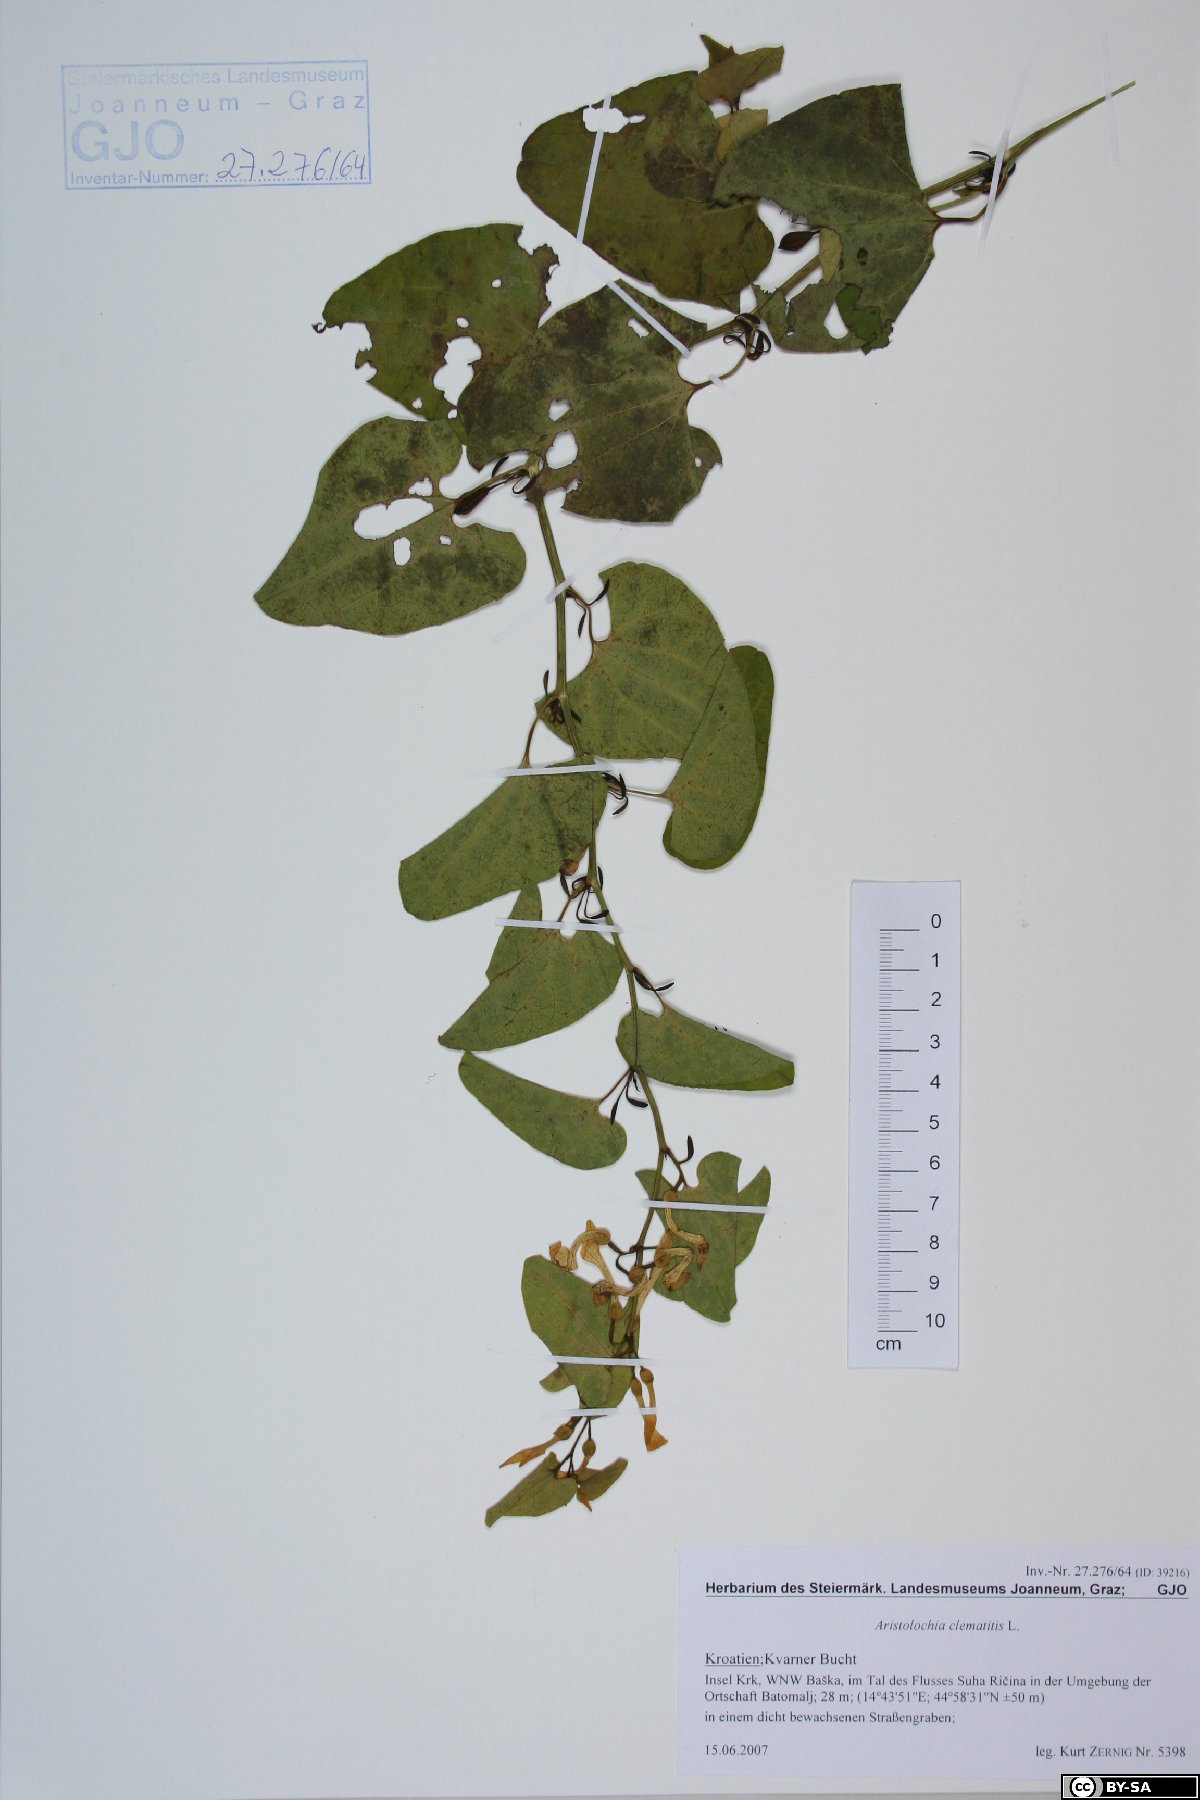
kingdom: Plantae
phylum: Tracheophyta
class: Magnoliopsida
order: Piperales
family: Aristolochiaceae
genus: Aristolochia
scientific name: Aristolochia clematitis
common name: Birthwort
